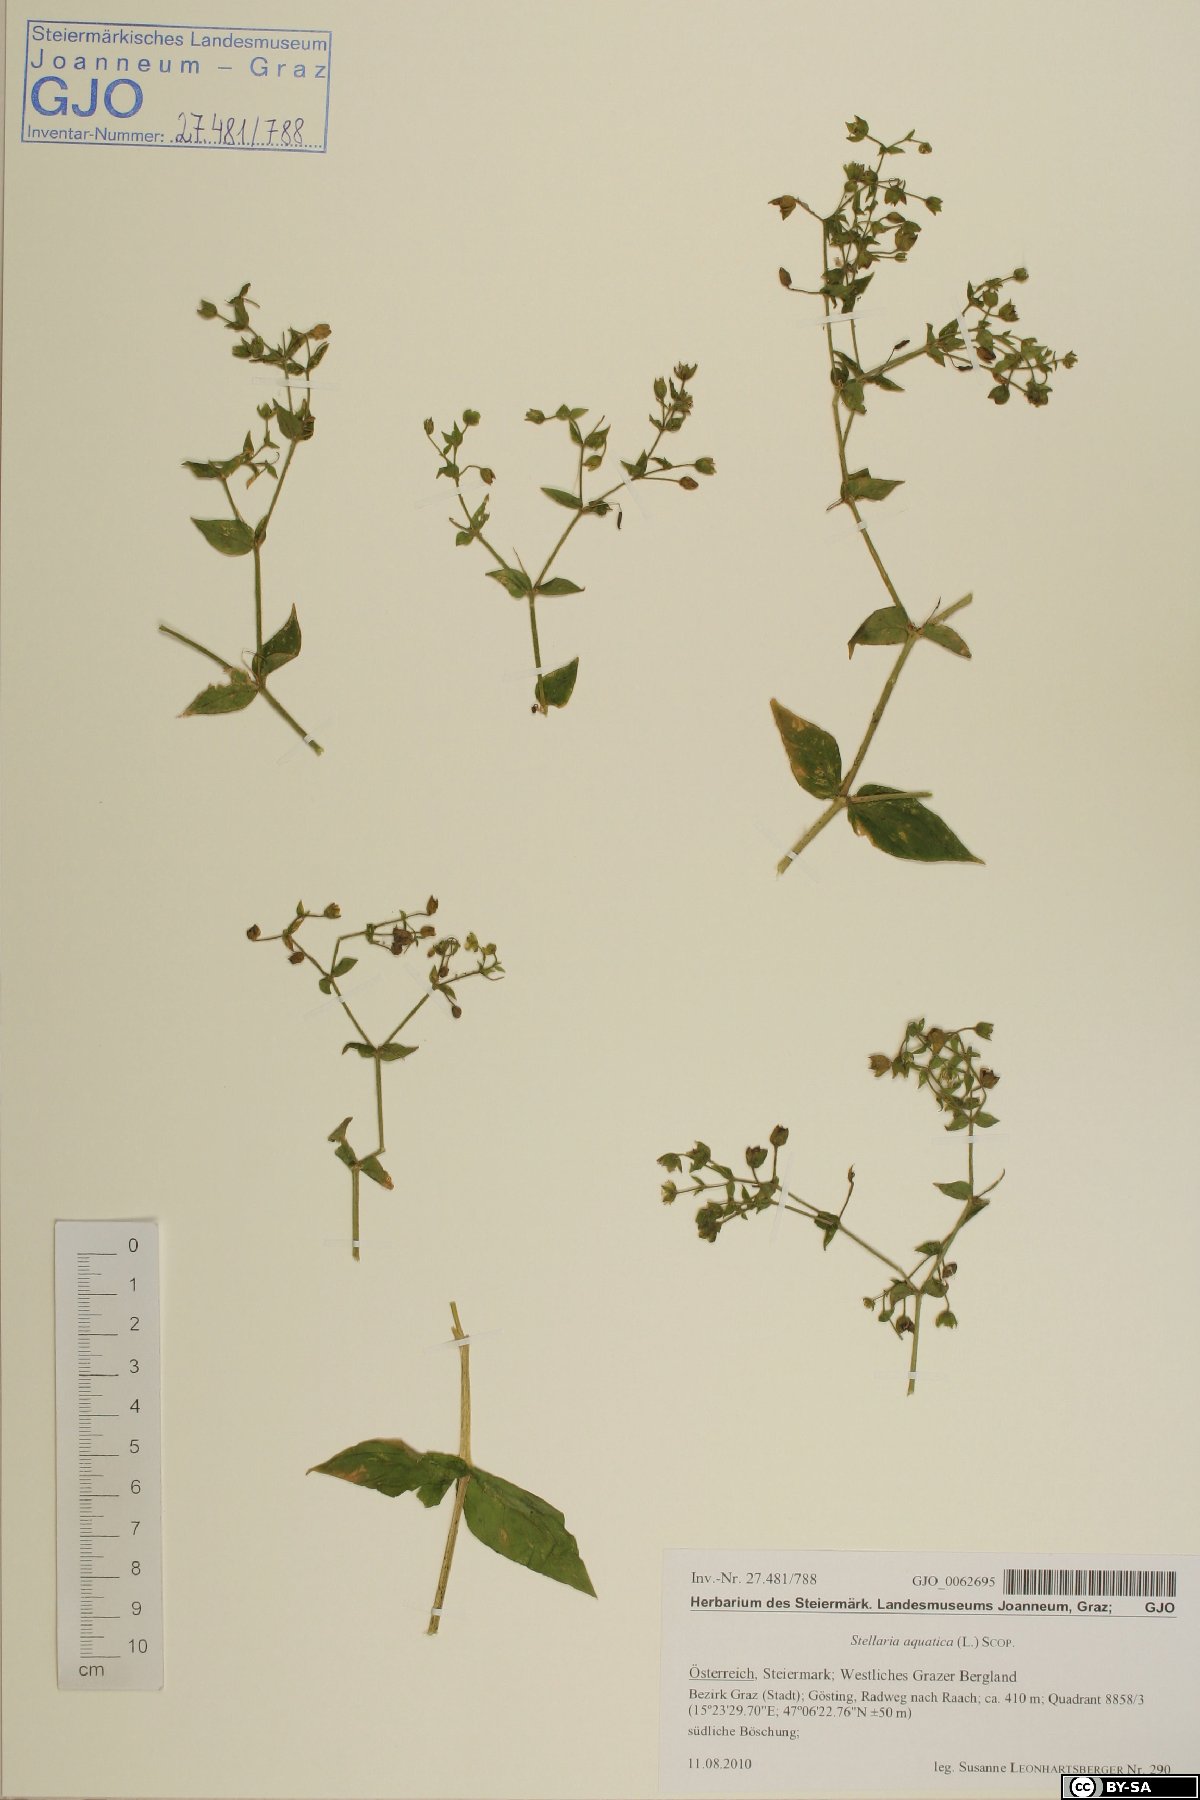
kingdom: Plantae
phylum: Tracheophyta
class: Magnoliopsida
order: Caryophyllales
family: Caryophyllaceae
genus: Stellaria
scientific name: Stellaria aquatica
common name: Water chickweed
